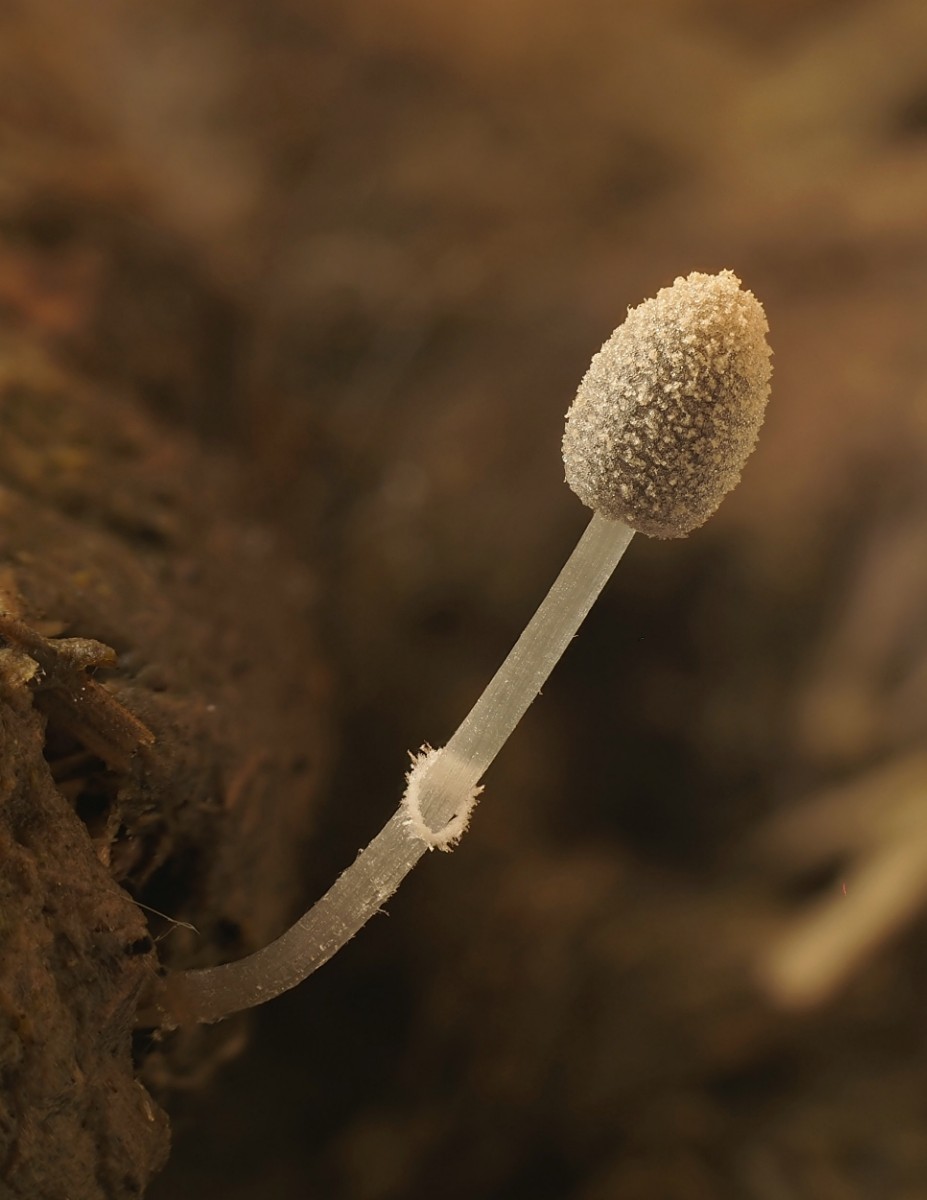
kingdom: Fungi
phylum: Basidiomycota
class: Agaricomycetes
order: Agaricales
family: Psathyrellaceae
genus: Narcissea
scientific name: Narcissea ephemeroides
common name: ring-blækhat
